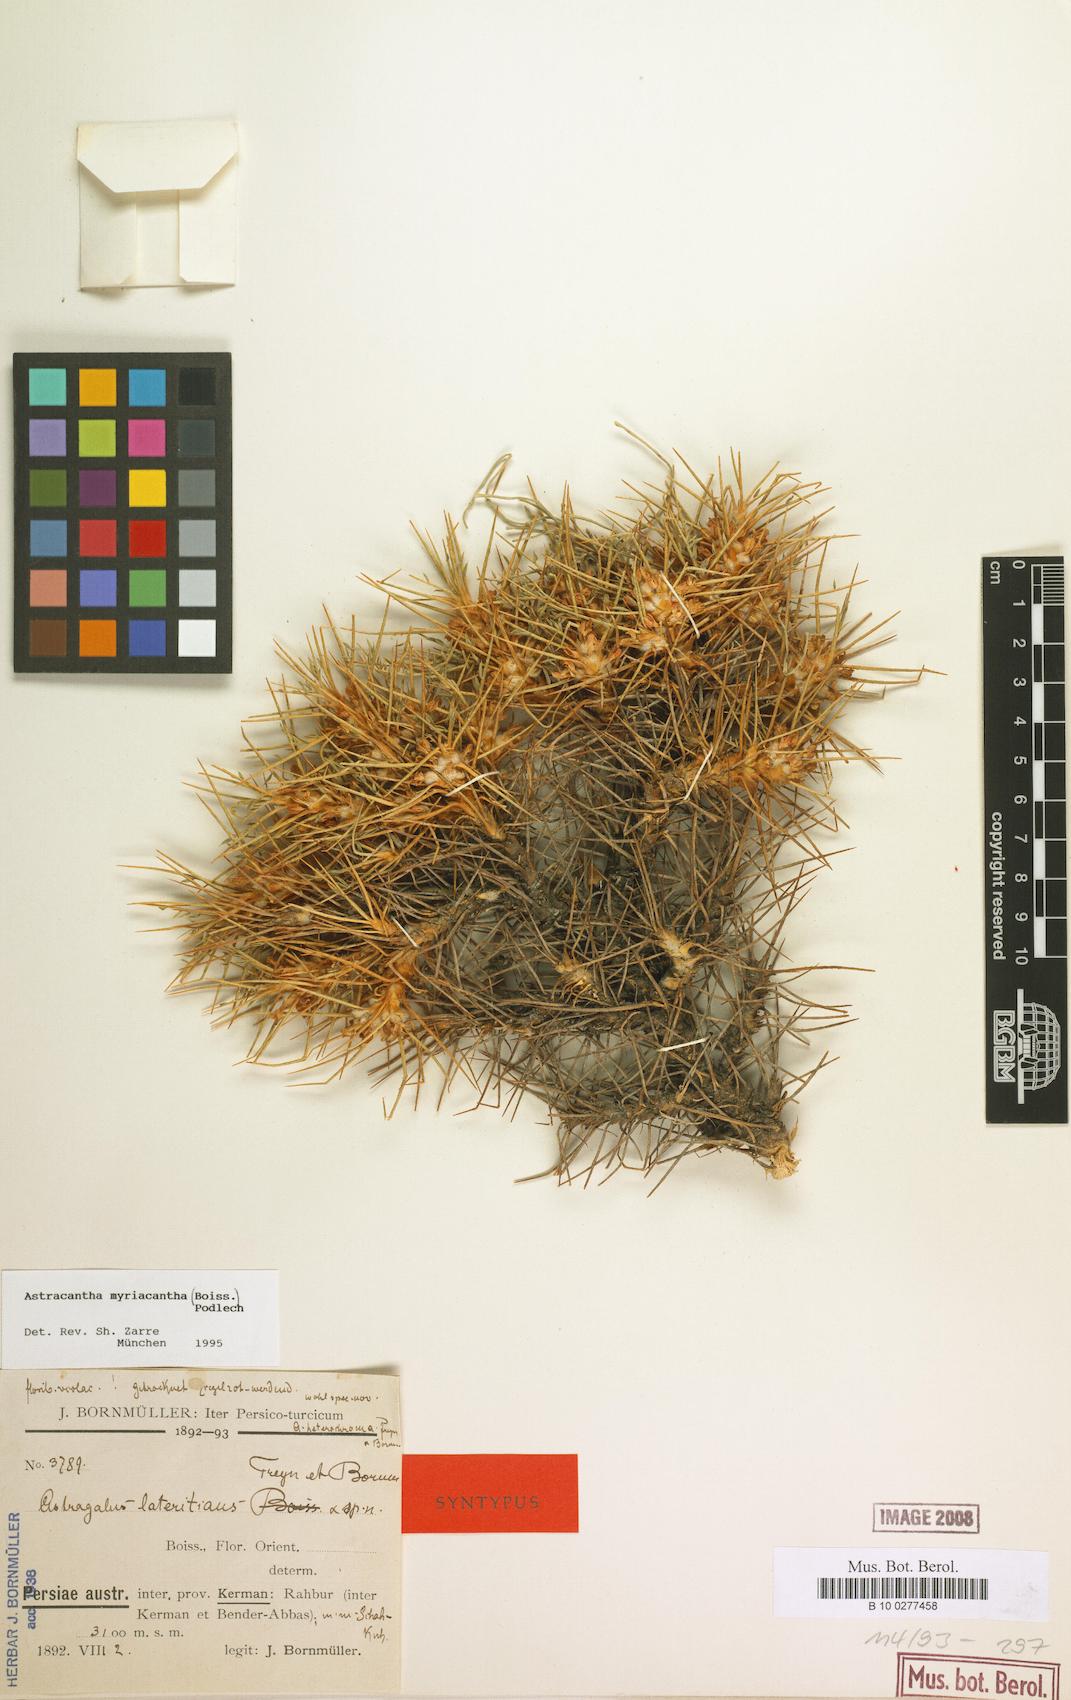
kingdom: Plantae
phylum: Tracheophyta
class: Magnoliopsida
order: Fabales
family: Fabaceae
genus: Astragalus
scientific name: Astragalus myriacanthus
